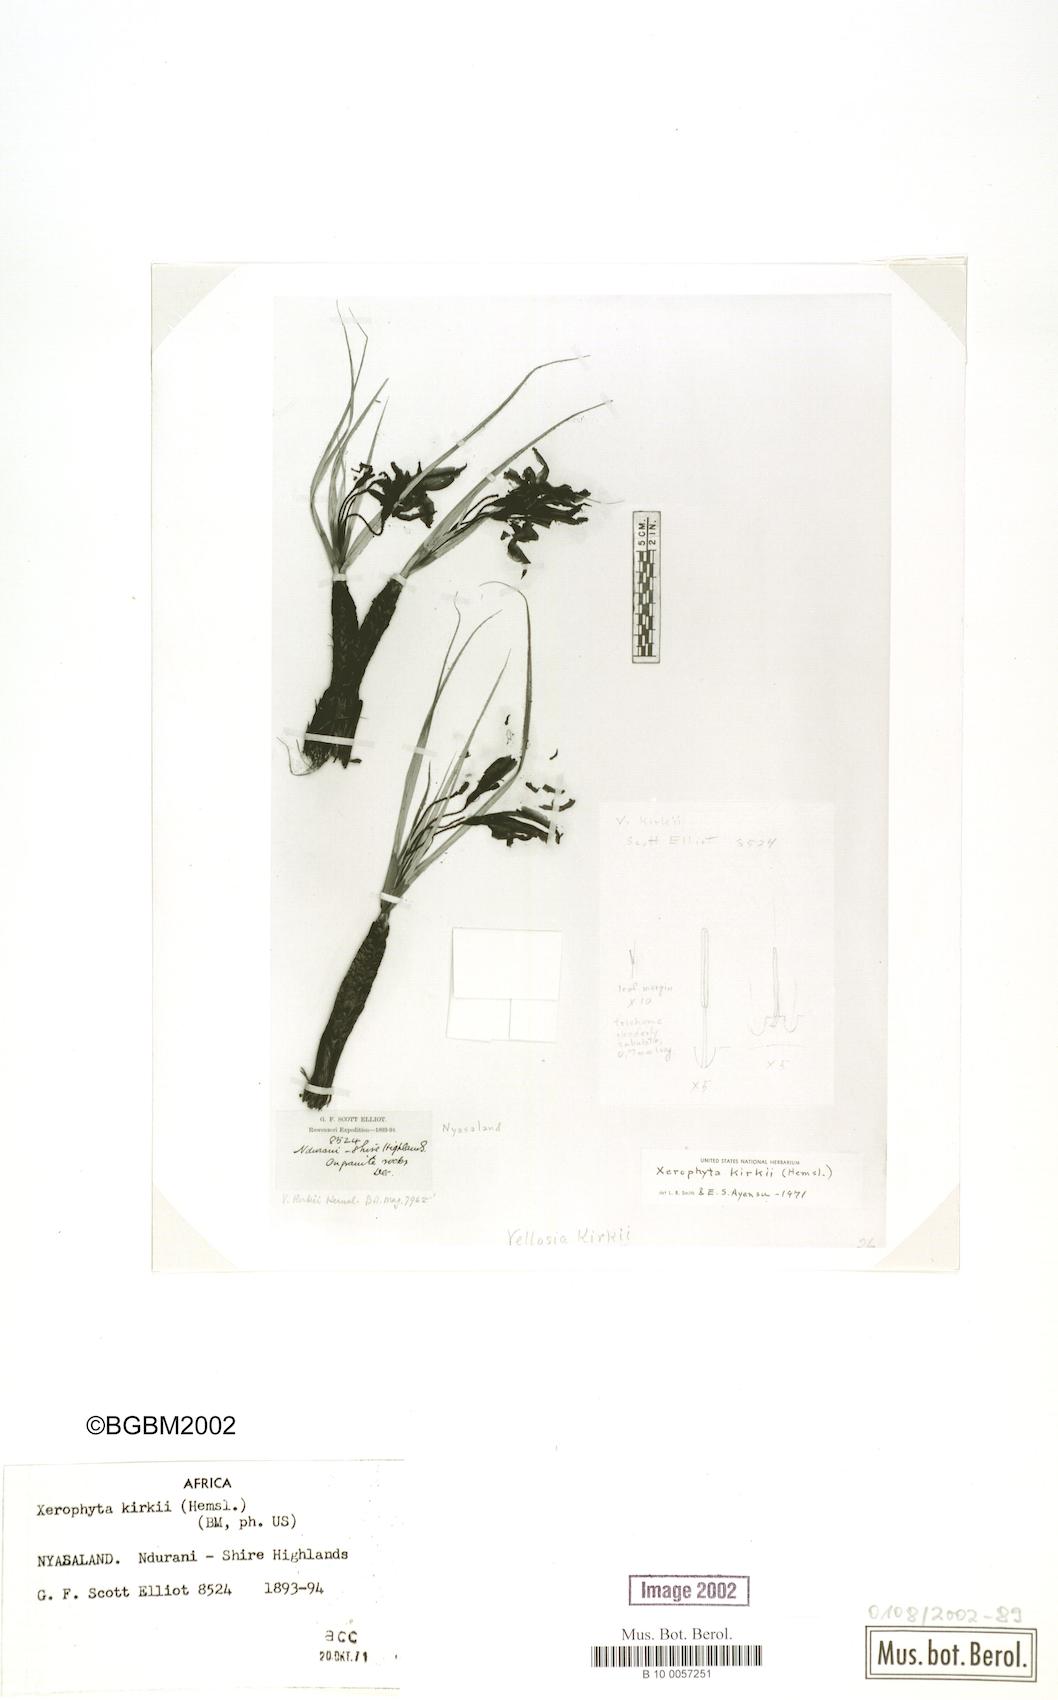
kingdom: Plantae
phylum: Tracheophyta
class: Liliopsida
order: Pandanales
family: Velloziaceae
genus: Xerophyta
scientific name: Xerophyta kirkii
